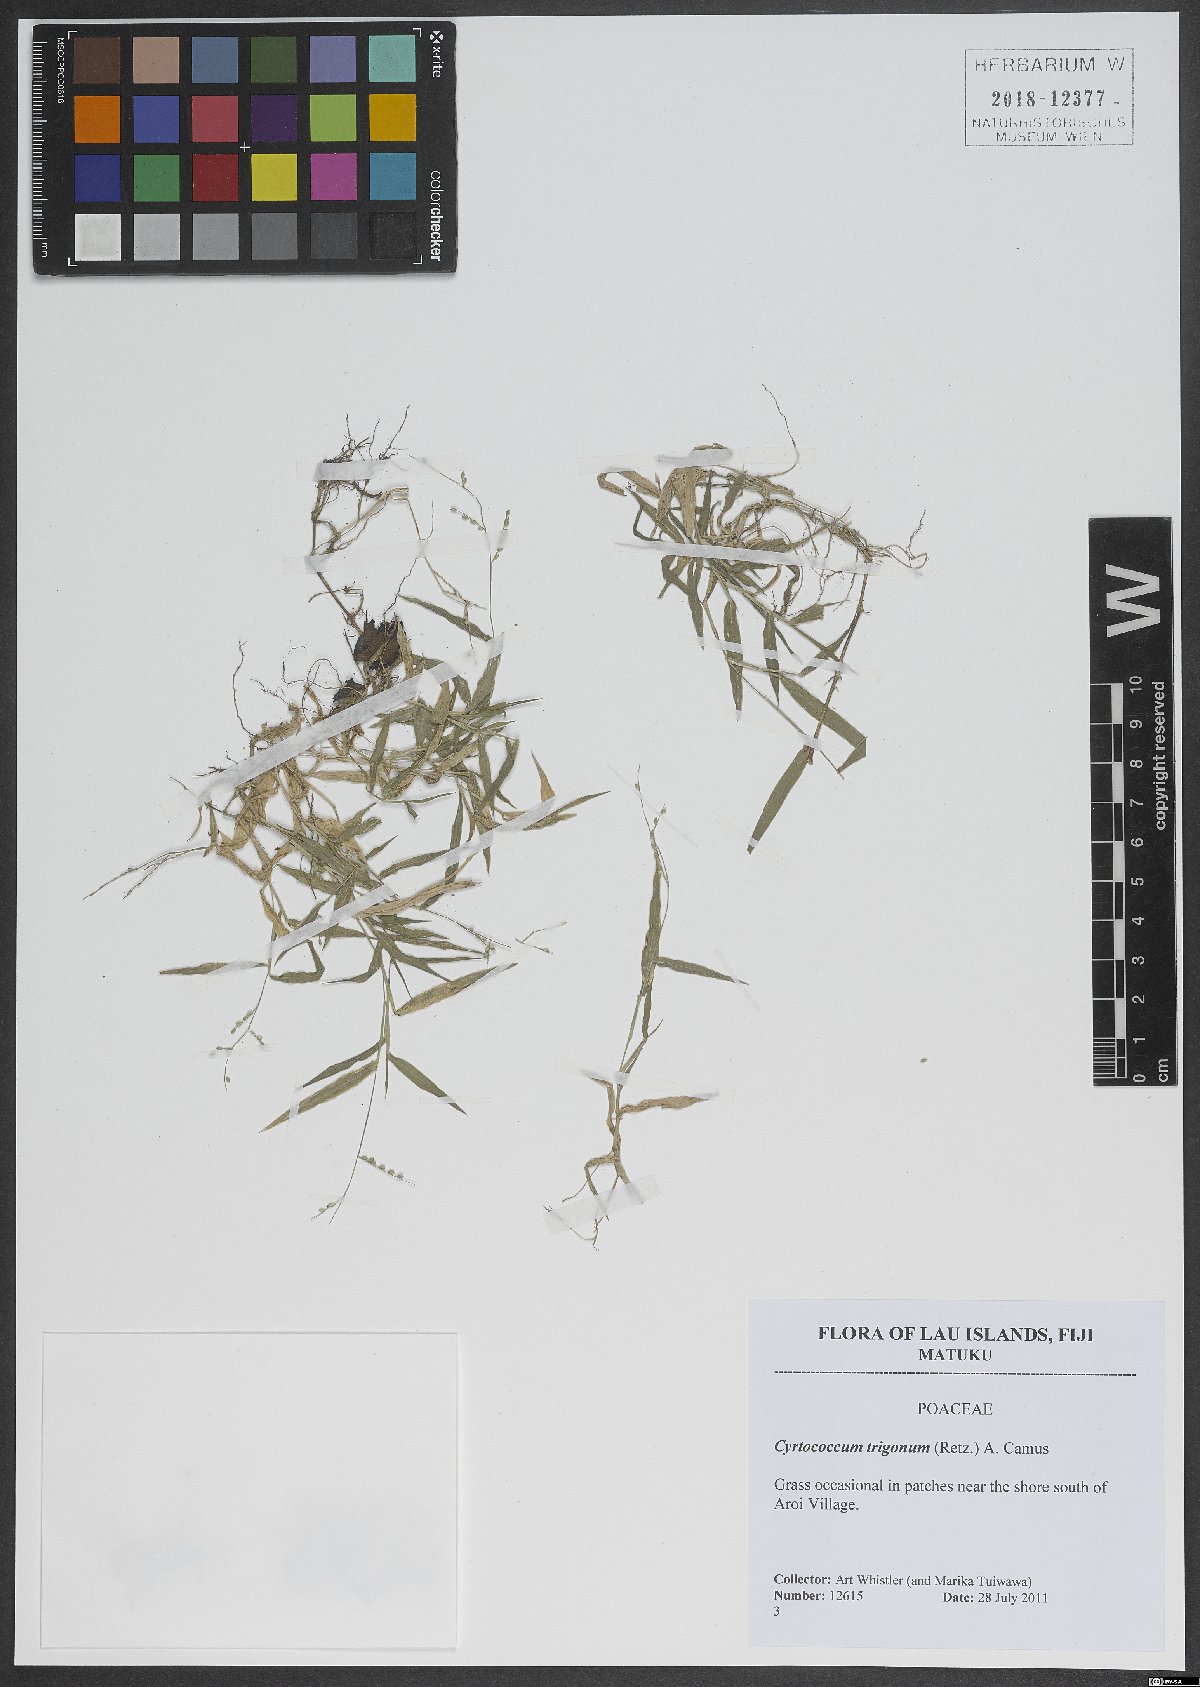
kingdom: Plantae
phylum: Tracheophyta
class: Liliopsida
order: Poales
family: Poaceae
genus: Cyrtococcum
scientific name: Cyrtococcum trigonum
